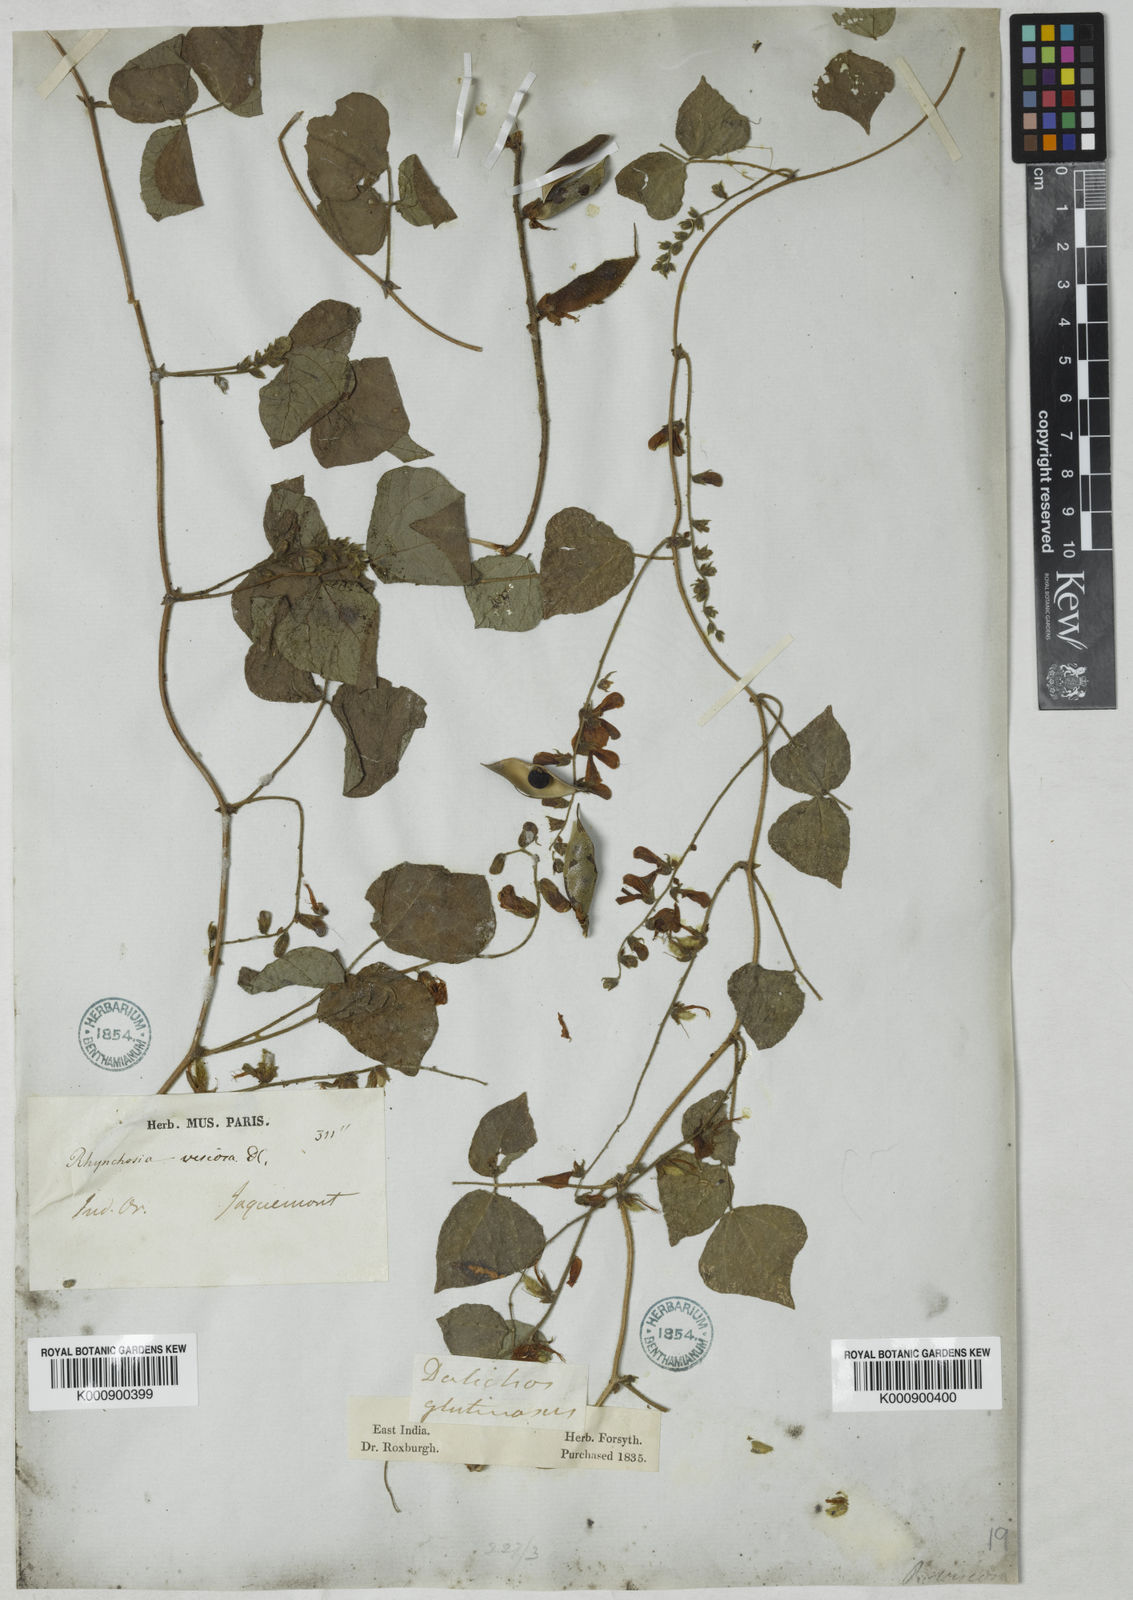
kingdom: Plantae
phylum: Tracheophyta
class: Magnoliopsida
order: Fabales
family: Fabaceae
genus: Rhynchosia
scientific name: Rhynchosia viscosa
